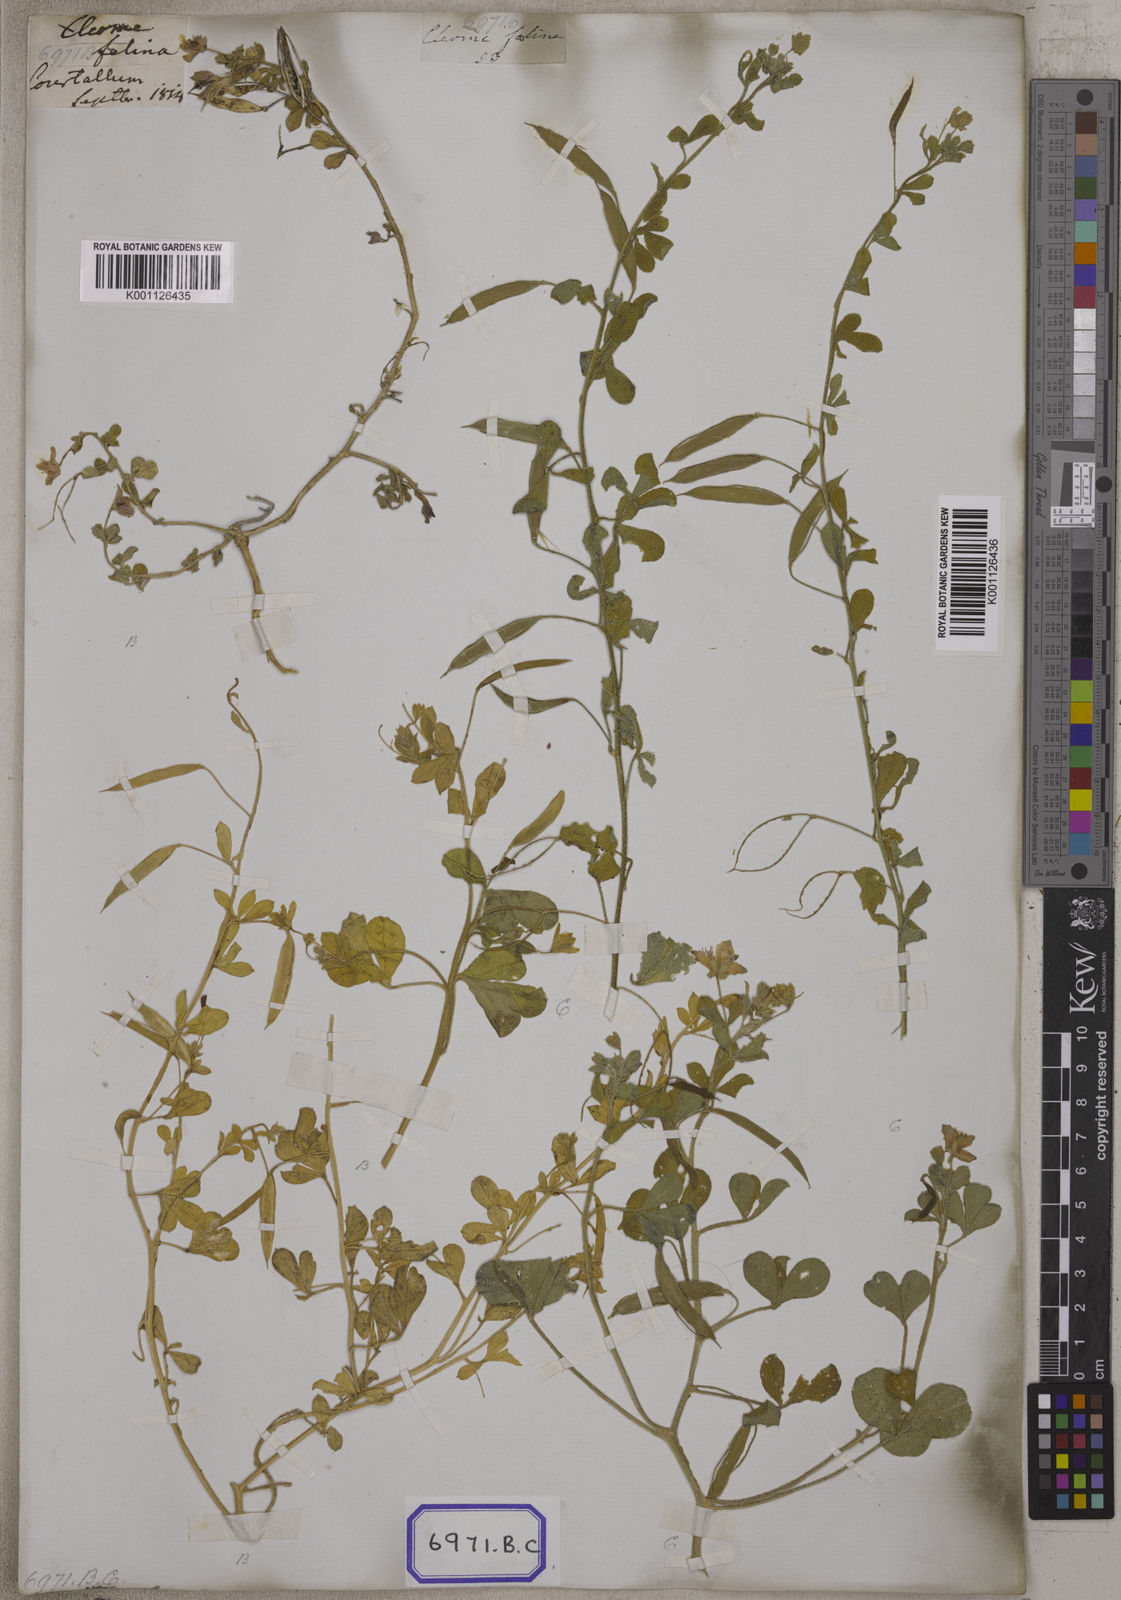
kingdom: Plantae
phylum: Tracheophyta
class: Magnoliopsida
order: Brassicales
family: Cleomaceae
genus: Corynandra
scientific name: Corynandra felina
